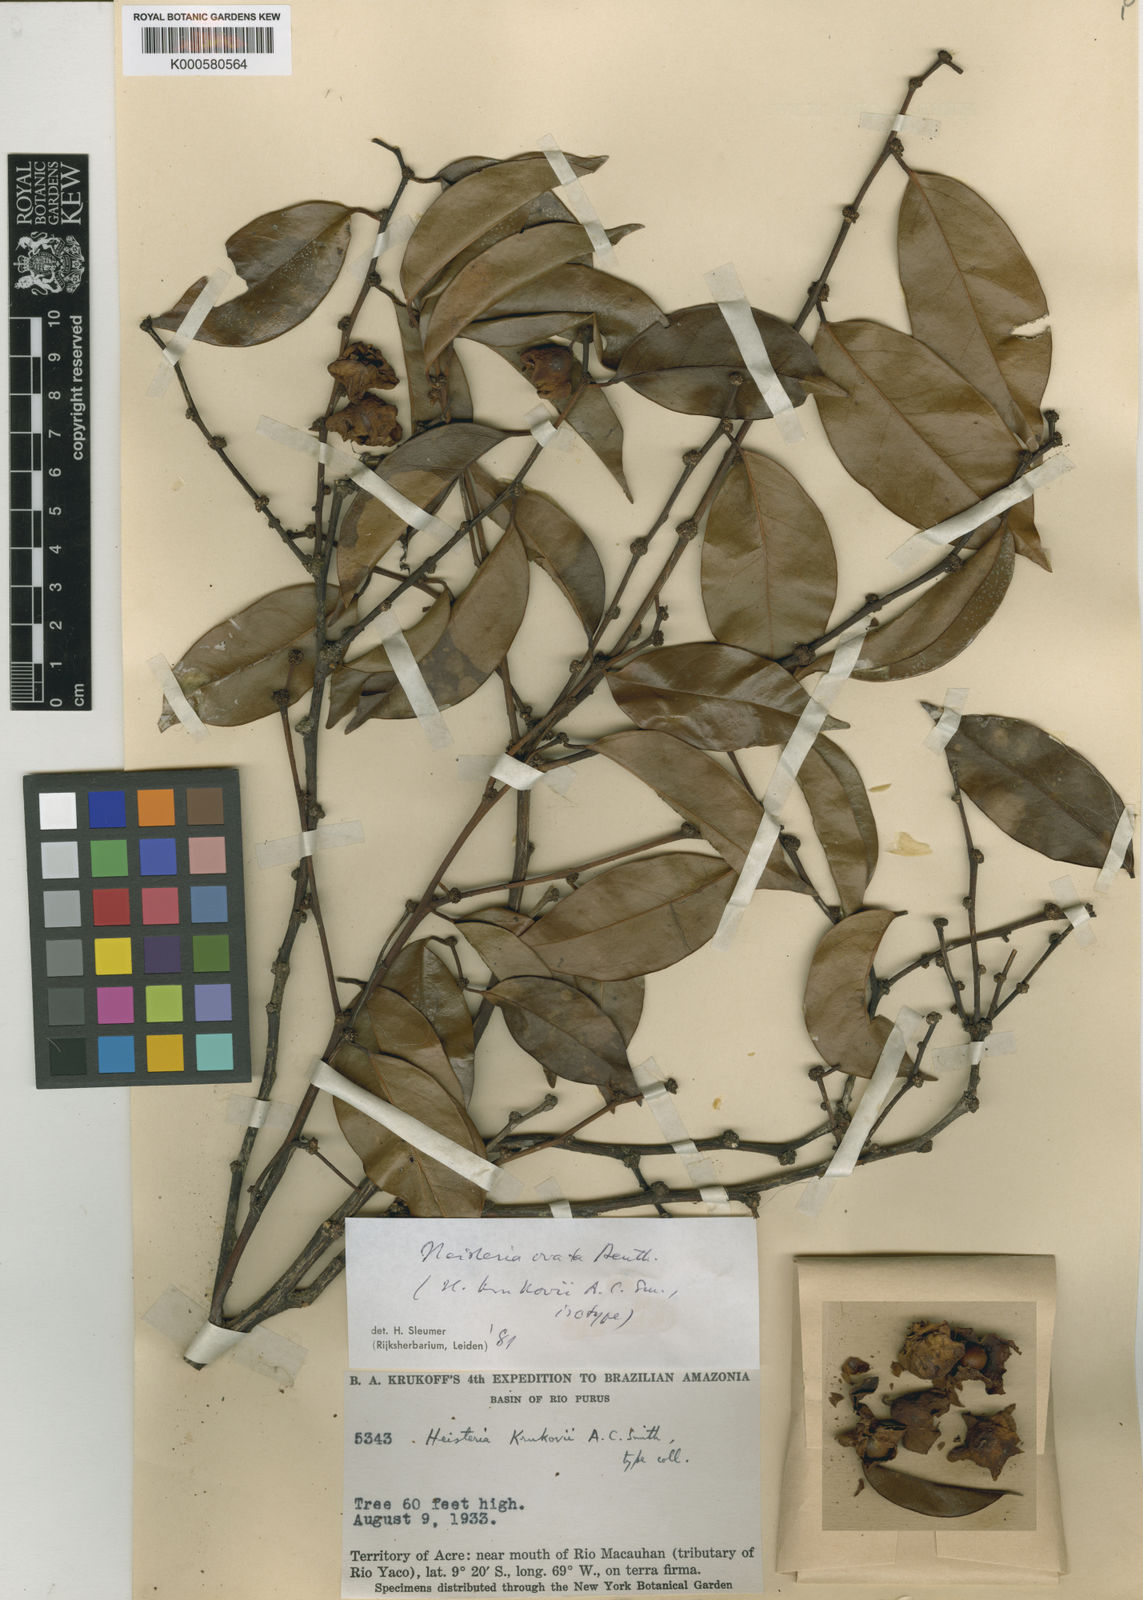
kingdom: Plantae
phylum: Tracheophyta
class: Magnoliopsida
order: Santalales
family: Erythropalaceae
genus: Heisteria
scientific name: Heisteria ovata
